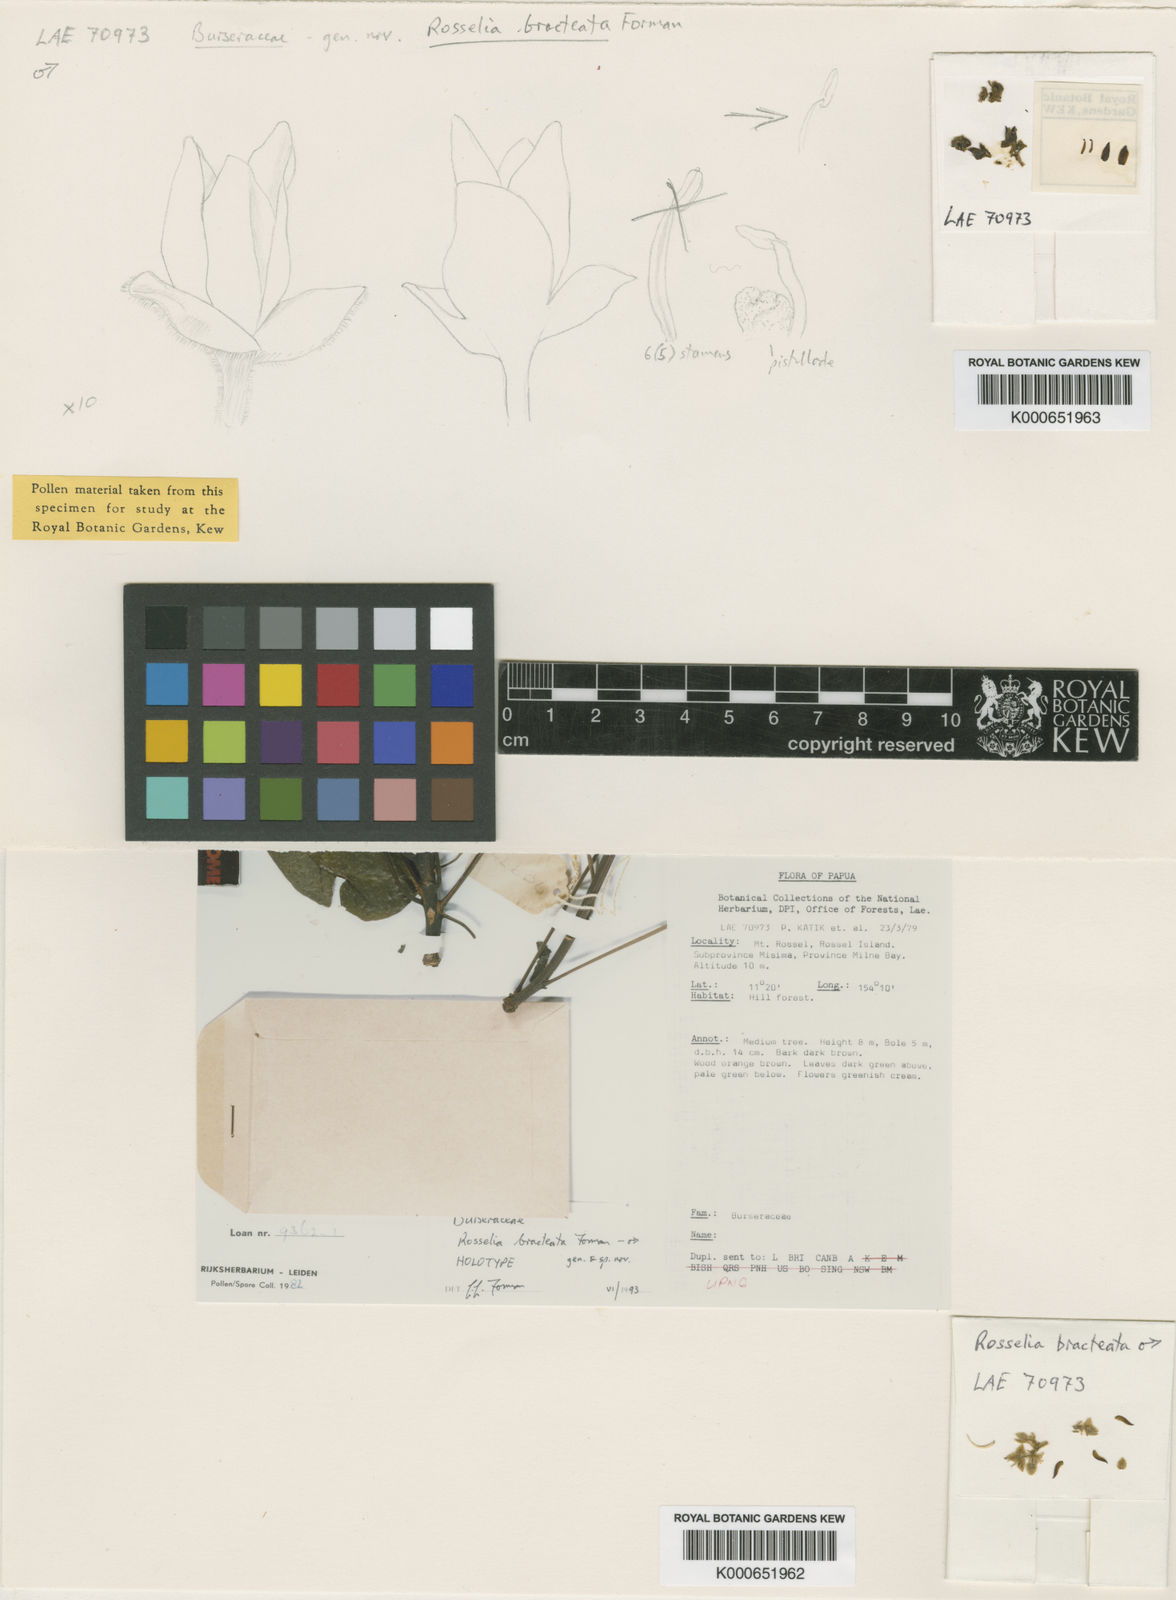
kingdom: Plantae
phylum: Tracheophyta
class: Magnoliopsida
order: Sapindales
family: Burseraceae
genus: Rosselia
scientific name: Rosselia bracteata
